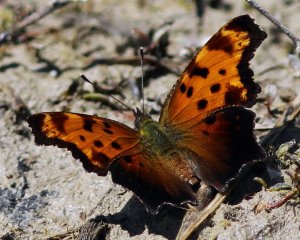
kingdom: Animalia
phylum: Arthropoda
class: Insecta
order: Lepidoptera
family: Nymphalidae
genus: Polygonia
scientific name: Polygonia progne
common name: Gray Comma
